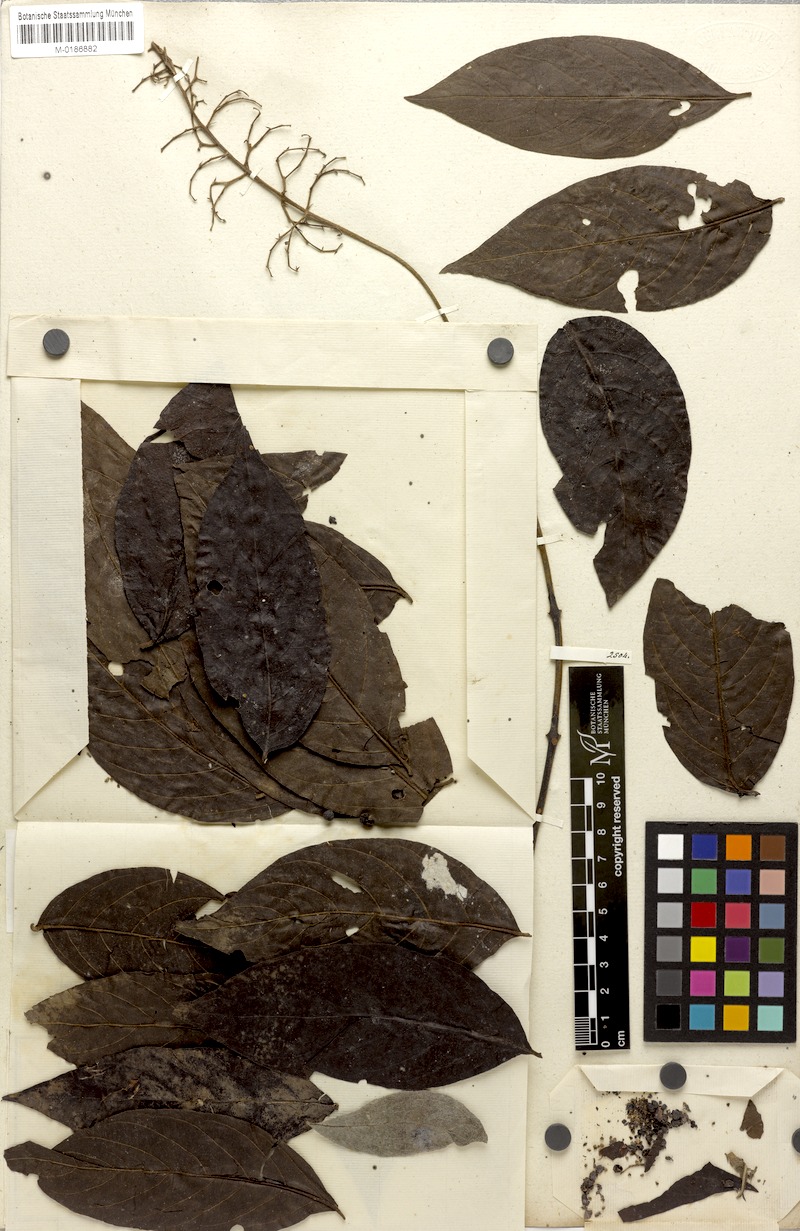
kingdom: Plantae
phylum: Tracheophyta
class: Magnoliopsida
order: Gentianales
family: Rubiaceae
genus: Bertiera
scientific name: Bertiera guianensis
